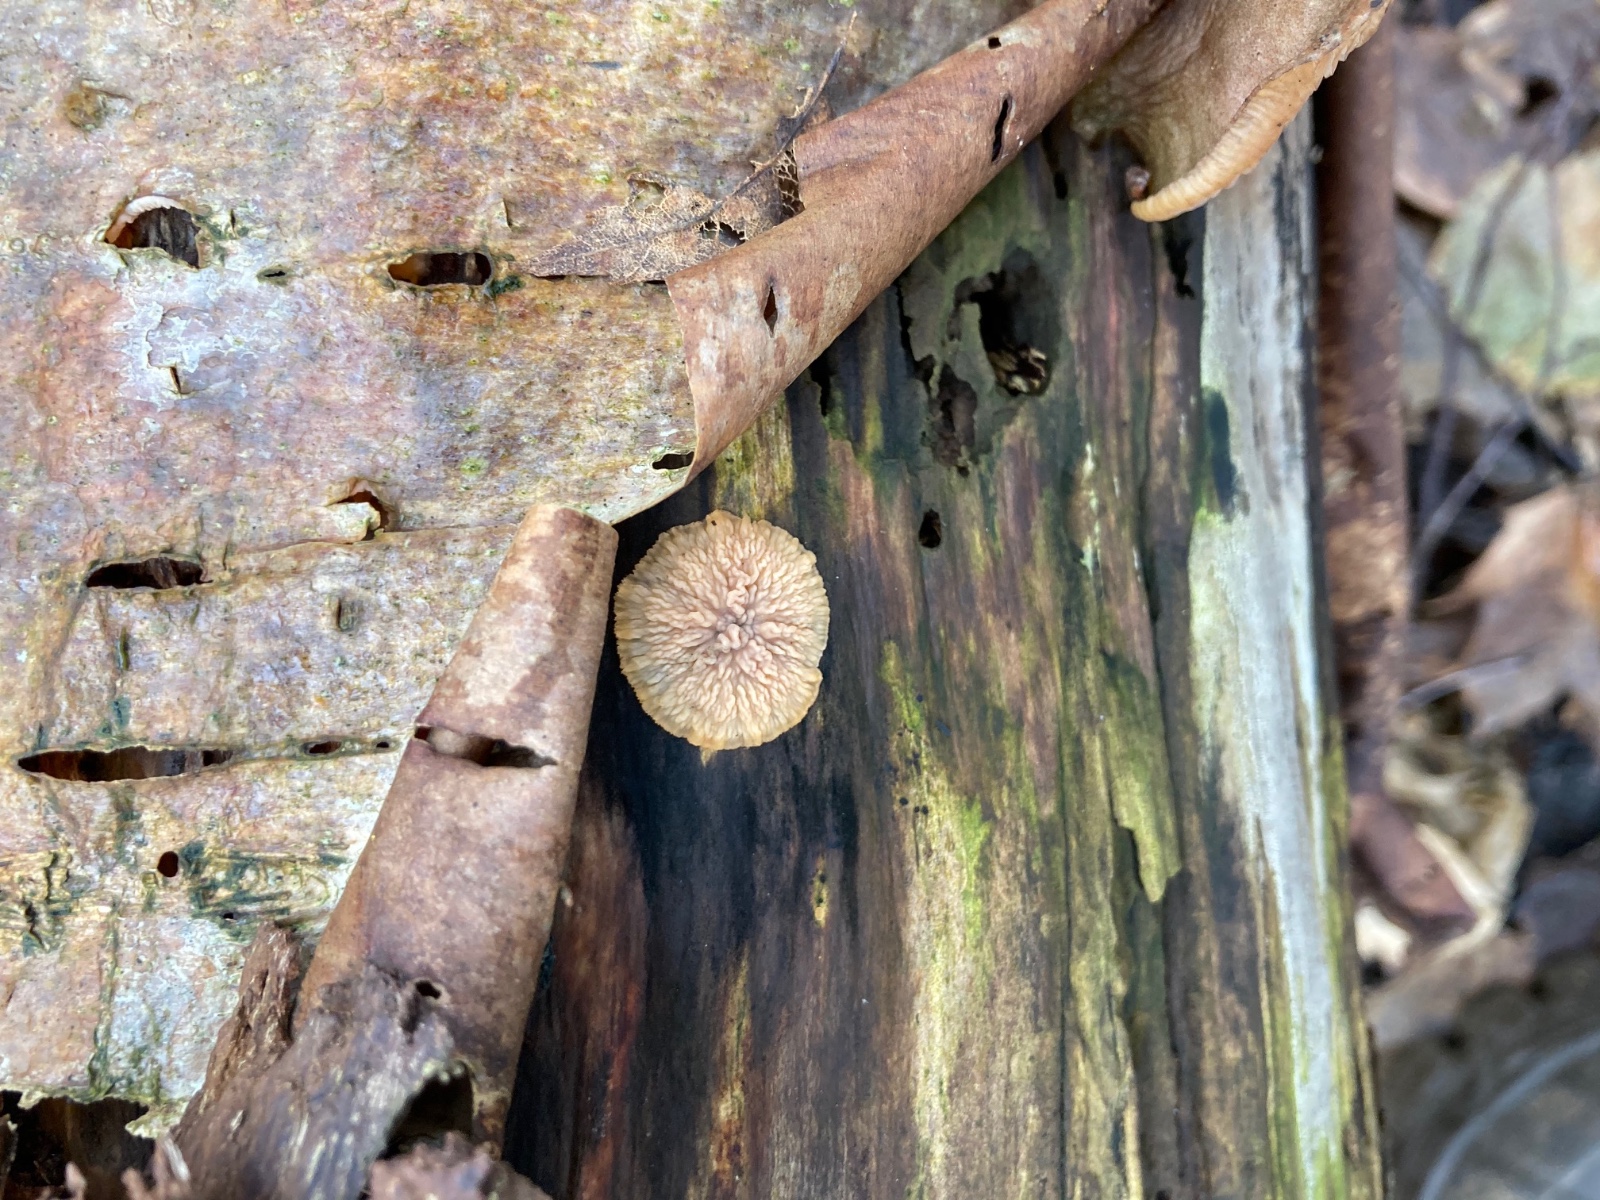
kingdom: Fungi
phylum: Basidiomycota
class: Agaricomycetes
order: Polyporales
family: Meruliaceae
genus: Phlebia
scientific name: Phlebia radiata
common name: stråle-åresvamp
